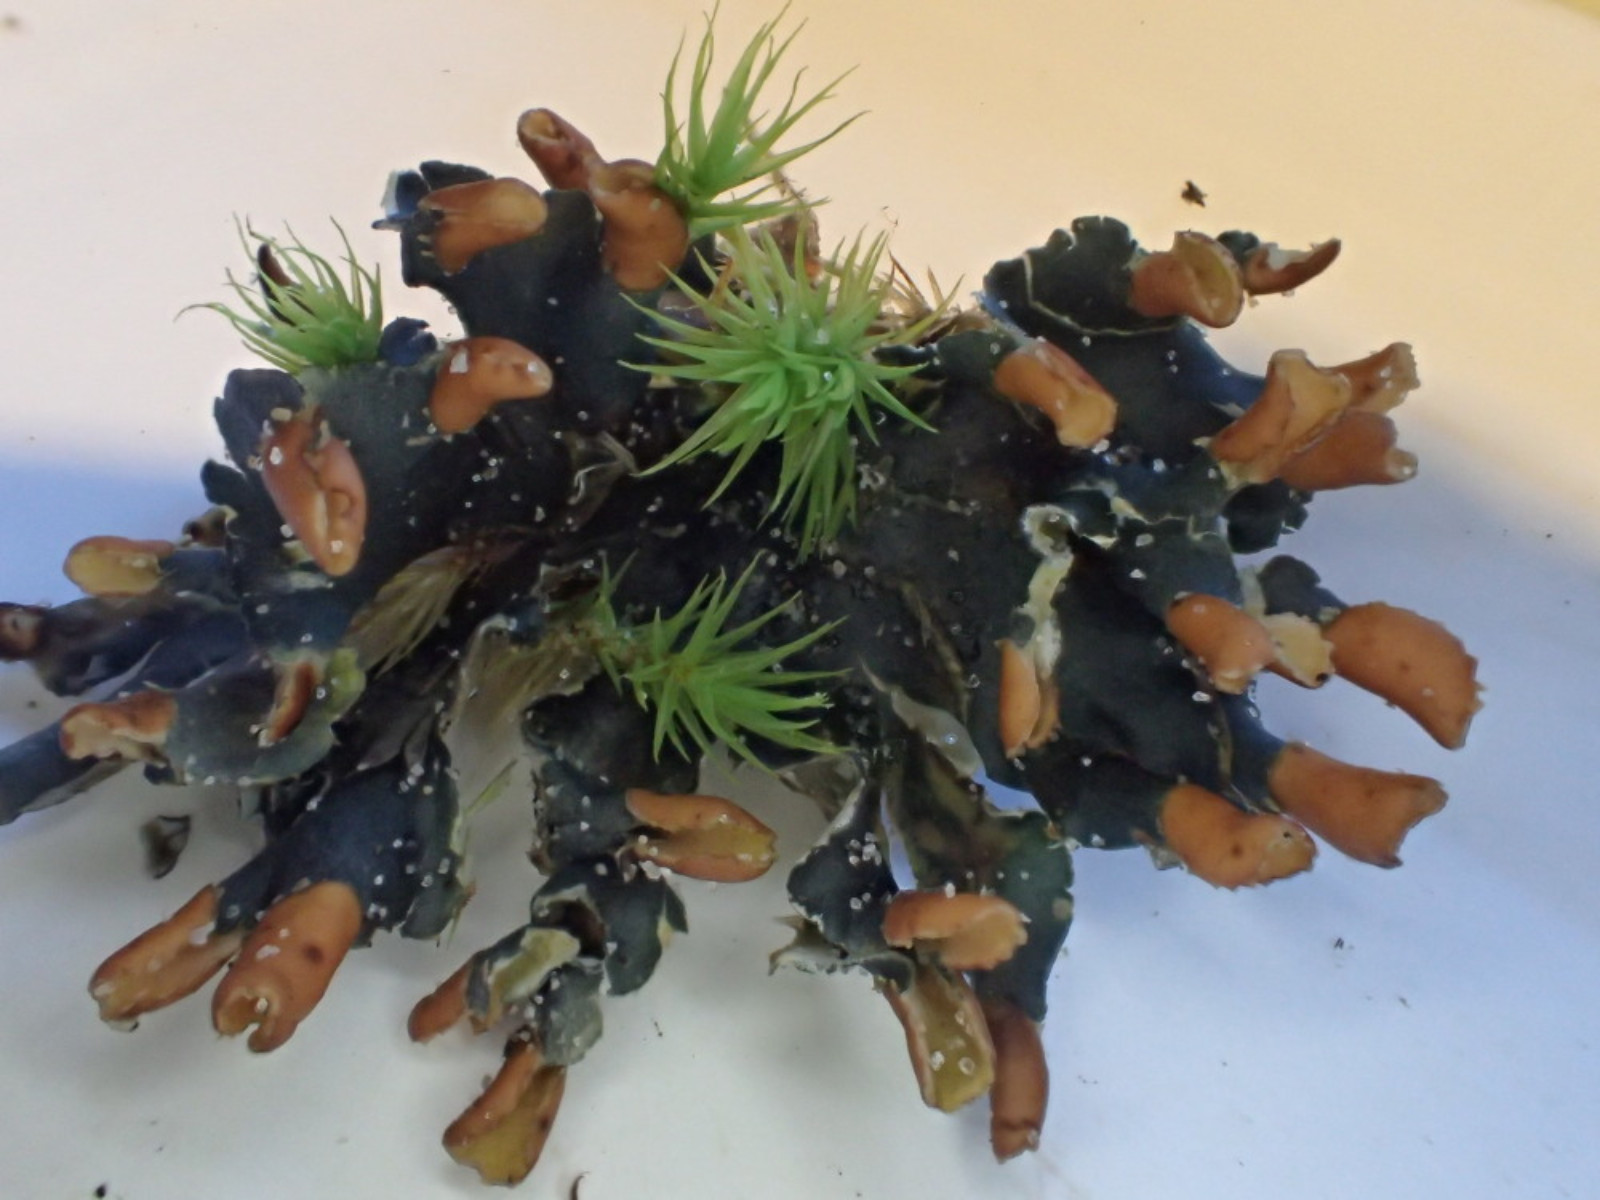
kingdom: Fungi
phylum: Ascomycota
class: Lecanoromycetes
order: Peltigerales
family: Peltigeraceae
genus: Peltigera
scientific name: Peltigera didactyla
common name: liden skjoldlav
